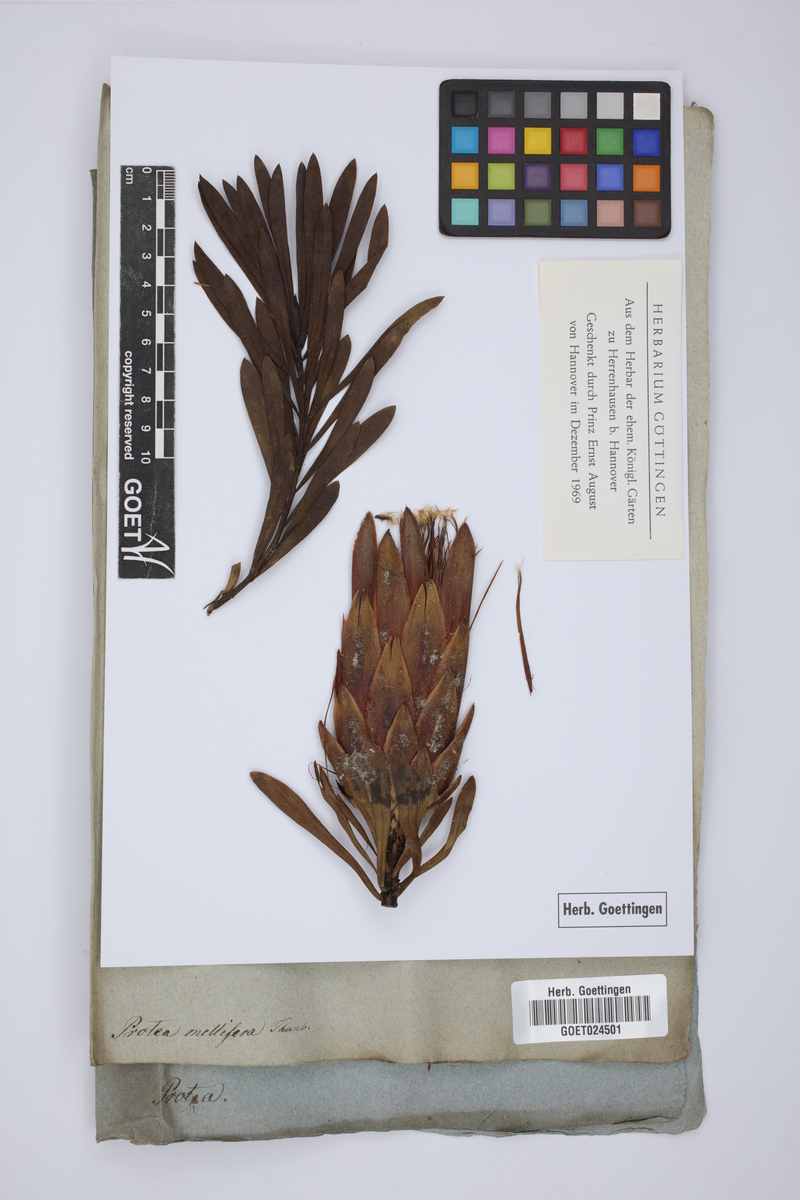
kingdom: Plantae
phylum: Tracheophyta
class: Magnoliopsida
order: Proteales
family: Proteaceae
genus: Protea
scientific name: Protea repens
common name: Sugarbush
